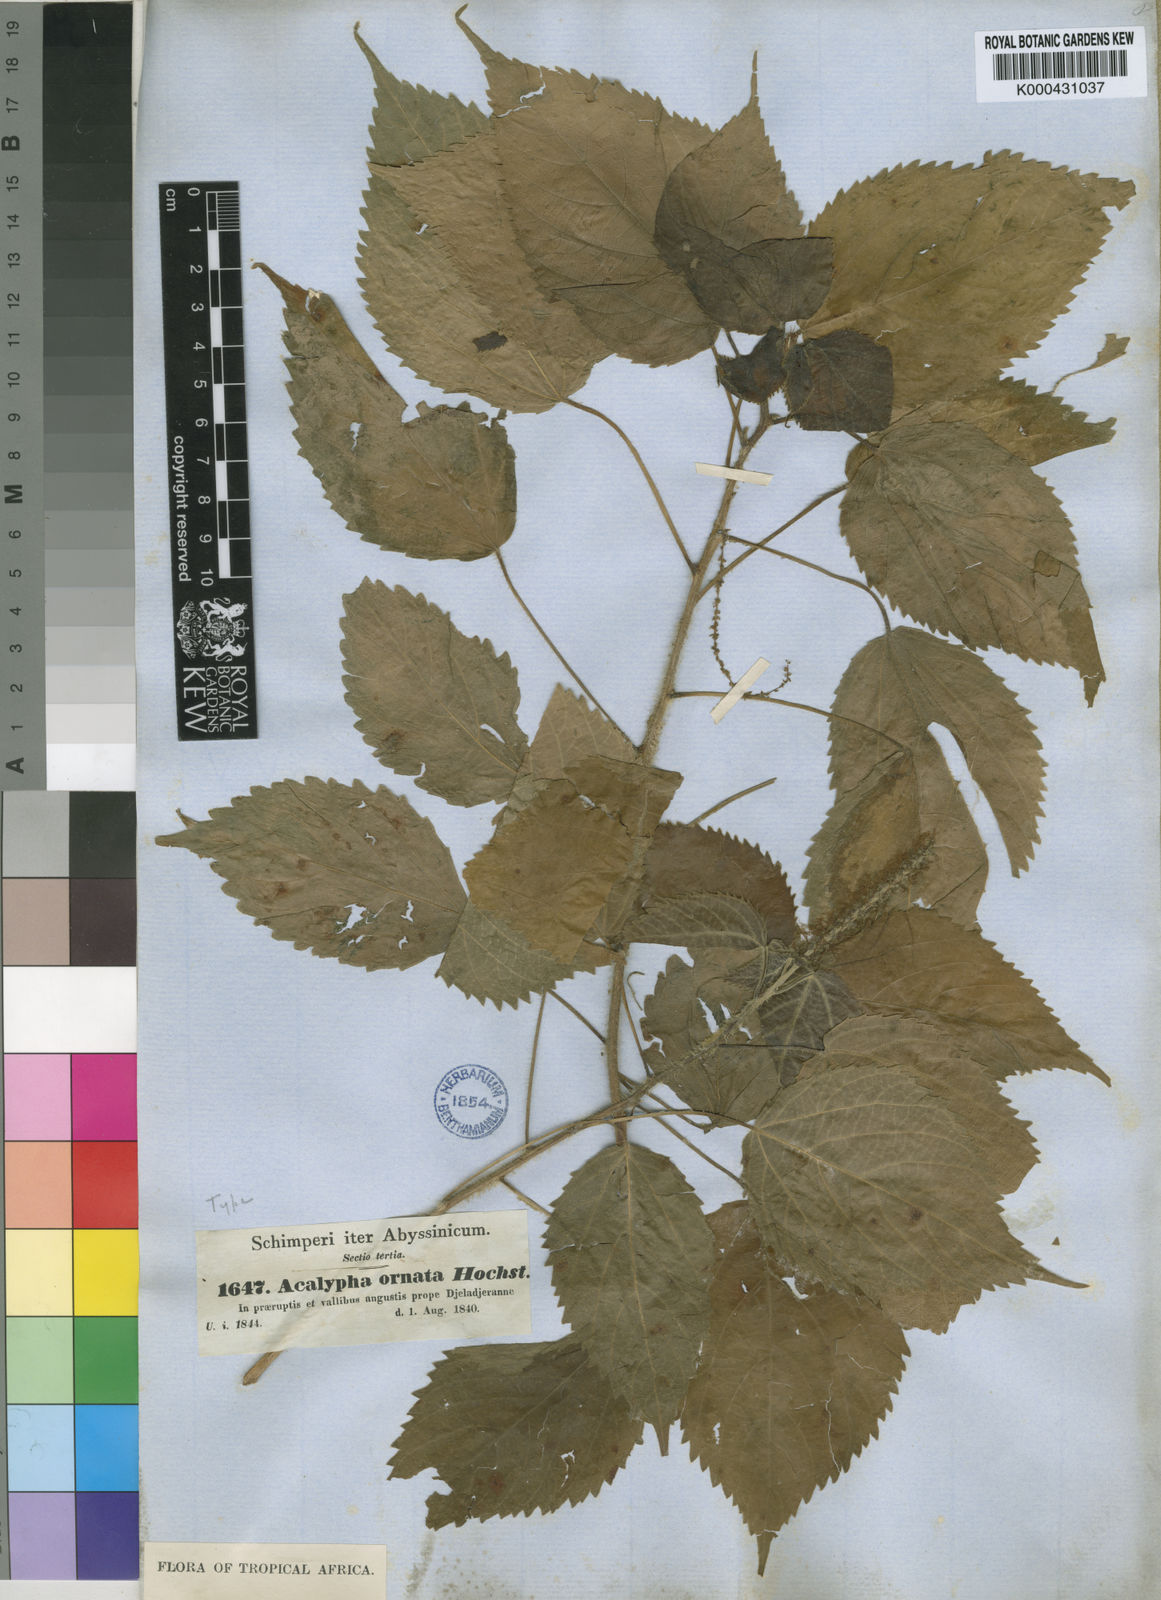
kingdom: Plantae
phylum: Tracheophyta
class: Magnoliopsida
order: Malpighiales
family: Euphorbiaceae
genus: Acalypha
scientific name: Acalypha ornata
